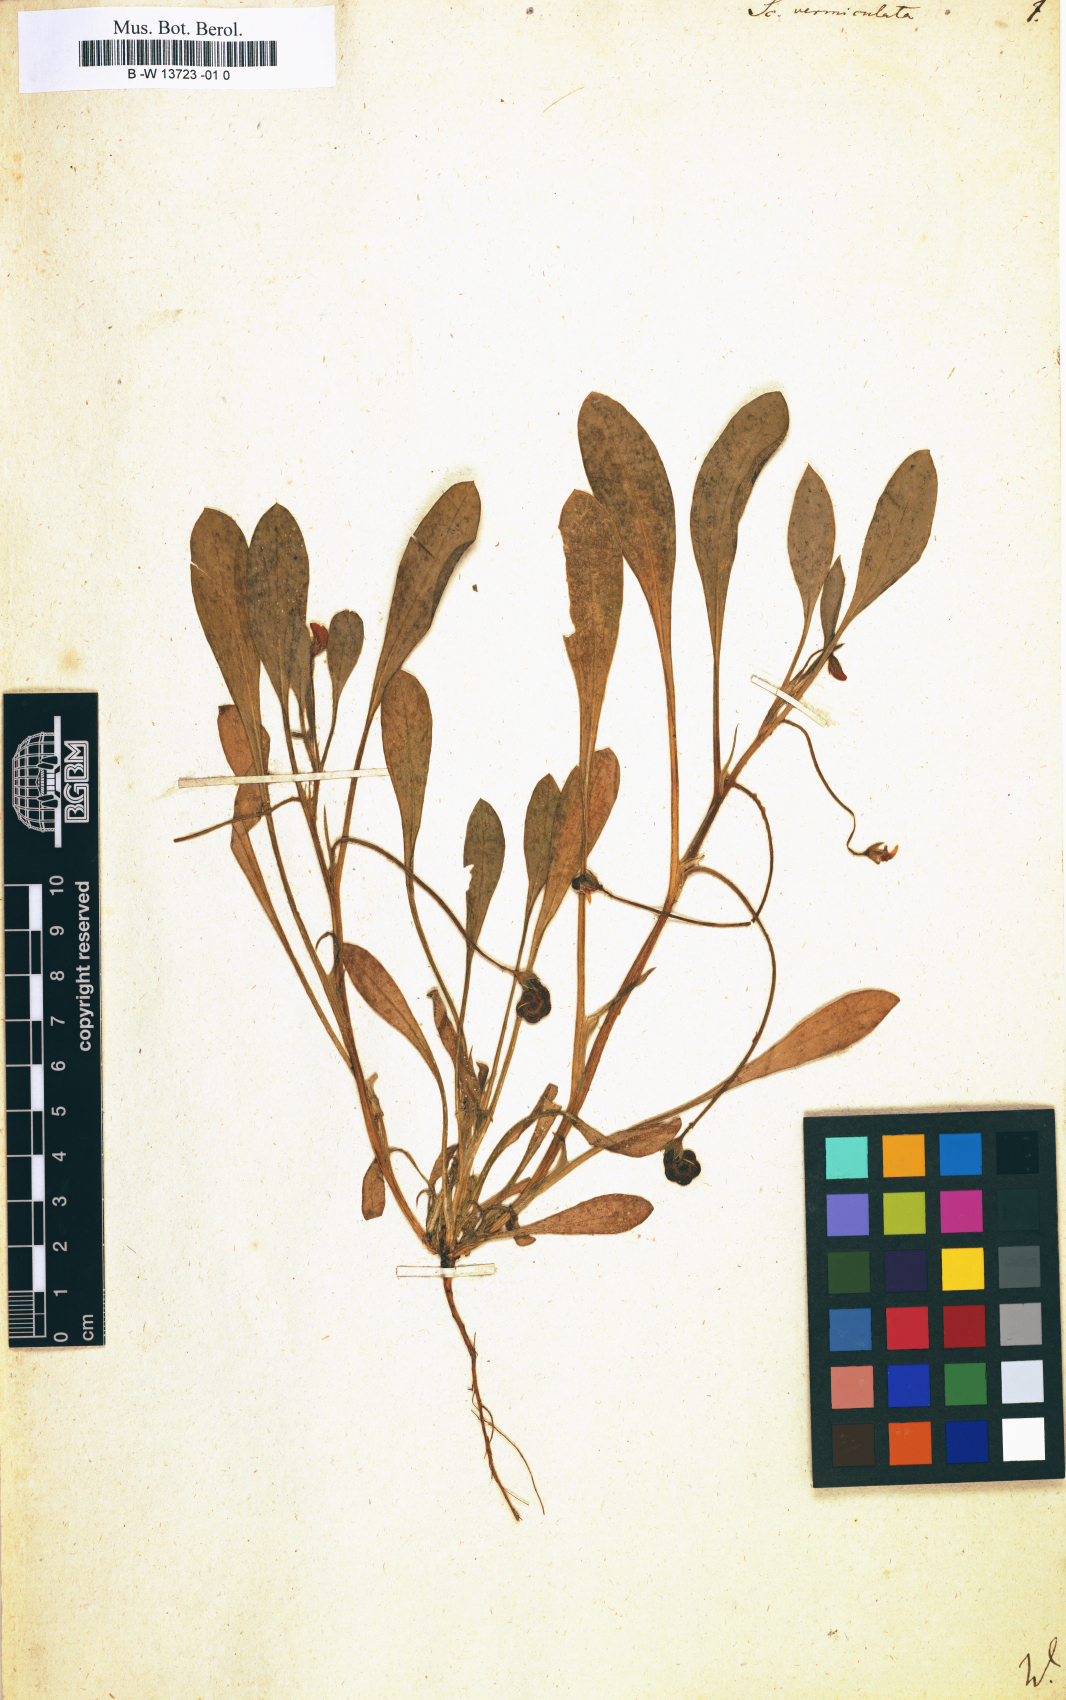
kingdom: Plantae
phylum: Tracheophyta
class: Magnoliopsida
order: Fabales
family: Fabaceae
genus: Scorpiurus
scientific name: Scorpiurus vermiculatus
